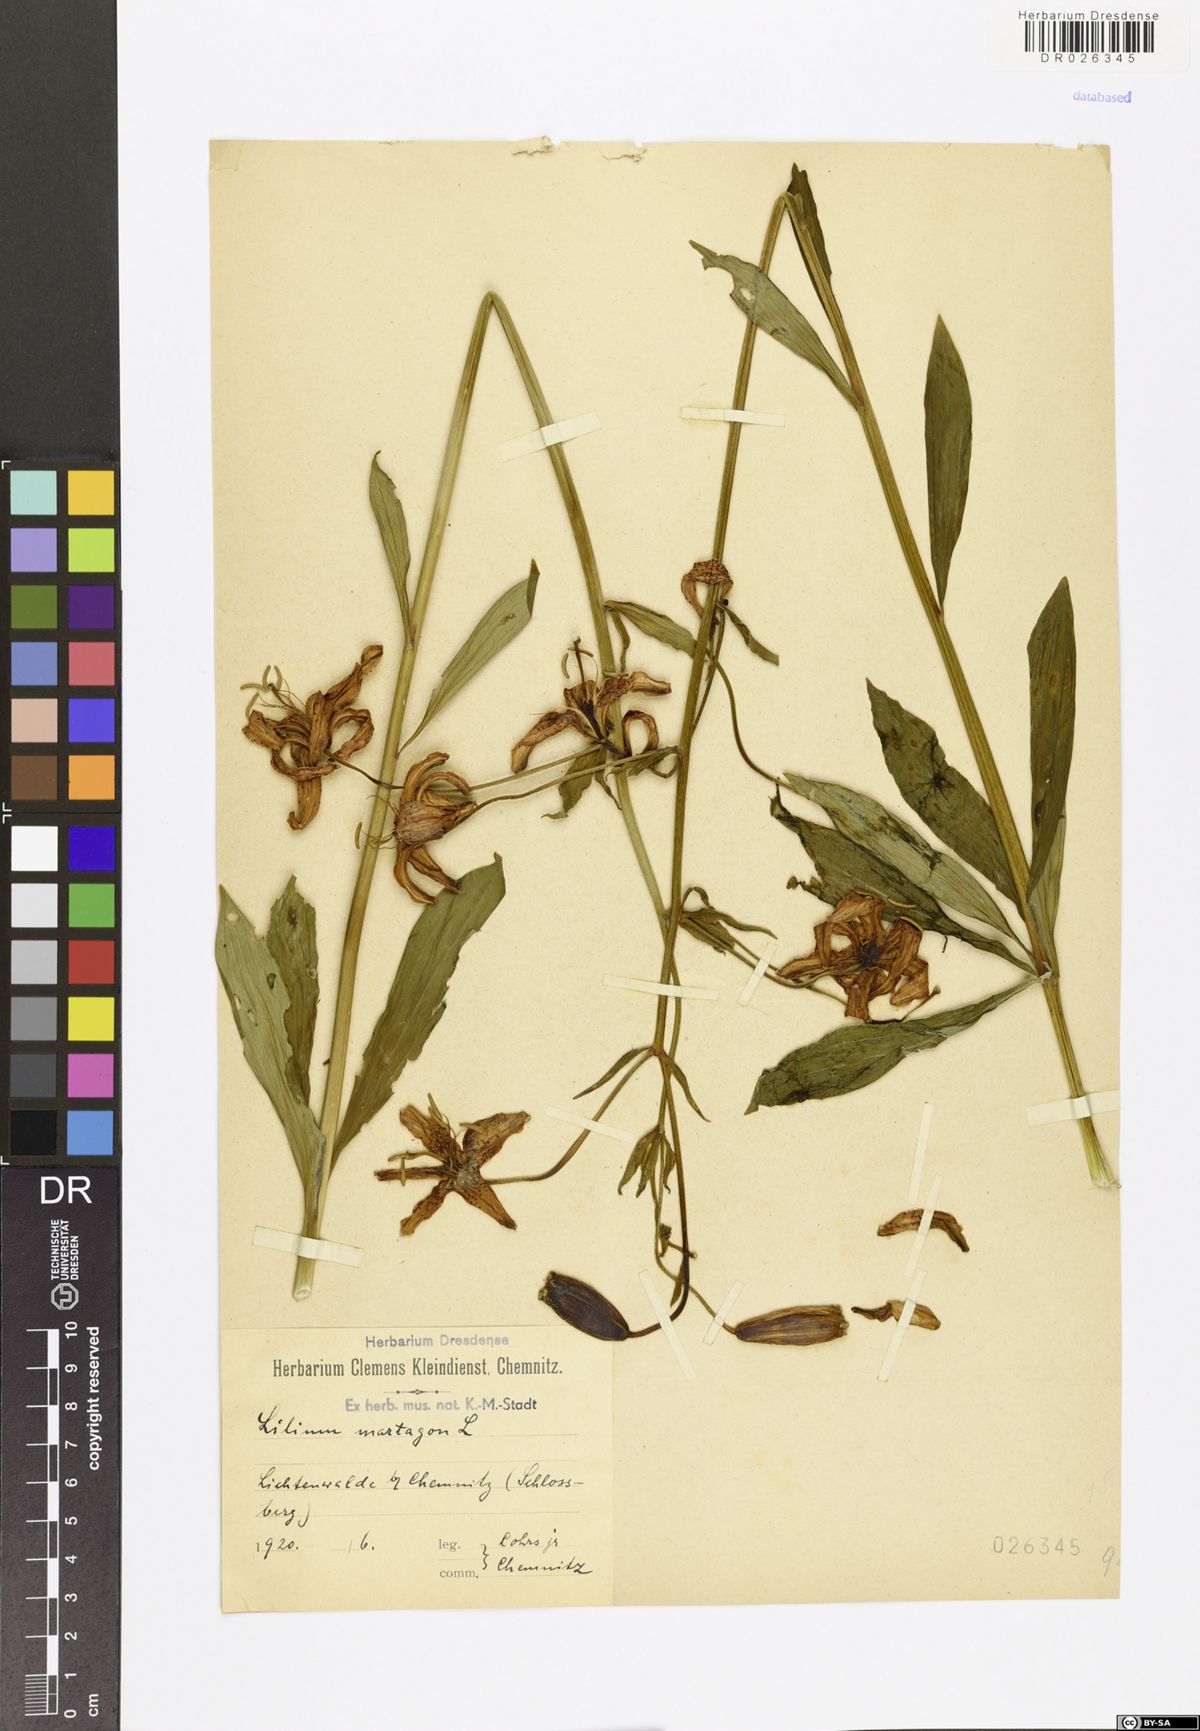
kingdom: Plantae
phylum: Tracheophyta
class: Liliopsida
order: Liliales
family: Liliaceae
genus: Lilium
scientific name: Lilium martagon
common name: Martagon lily
